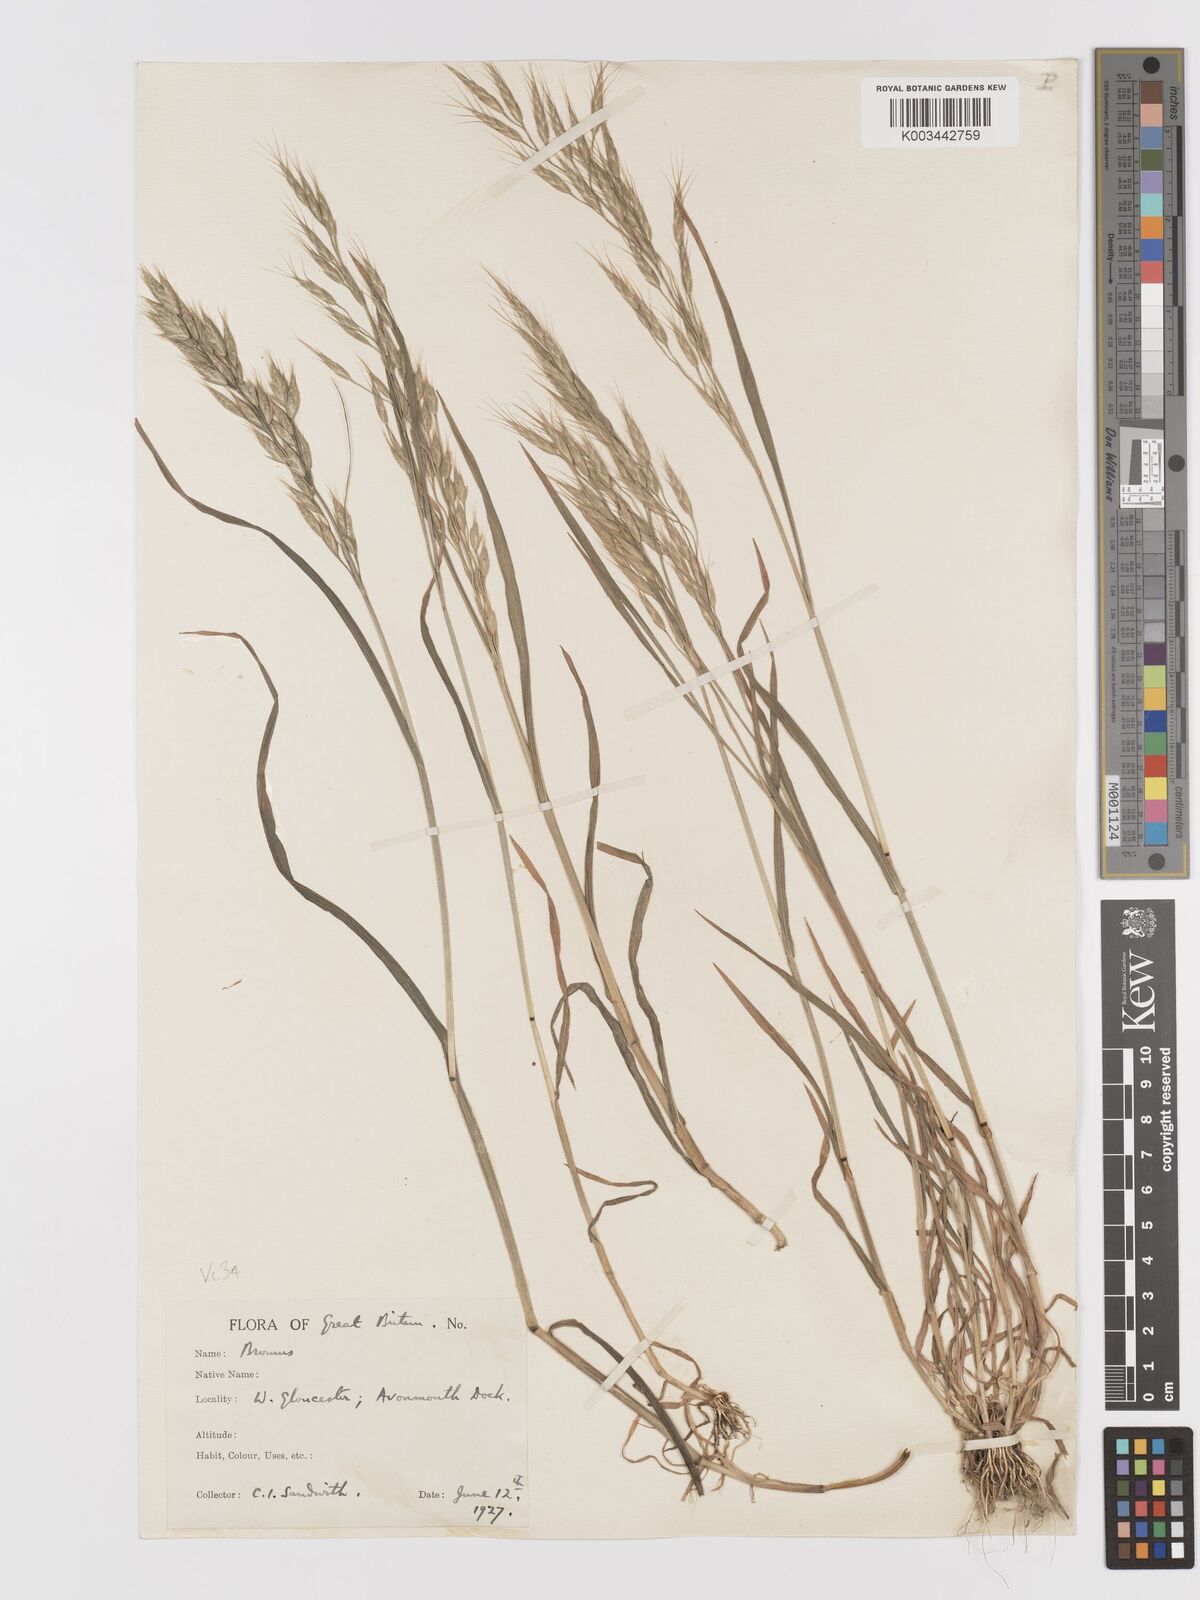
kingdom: Plantae
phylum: Tracheophyta
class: Liliopsida
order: Poales
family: Poaceae
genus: Bromus
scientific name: Bromus japonicus
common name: Japanese brome
